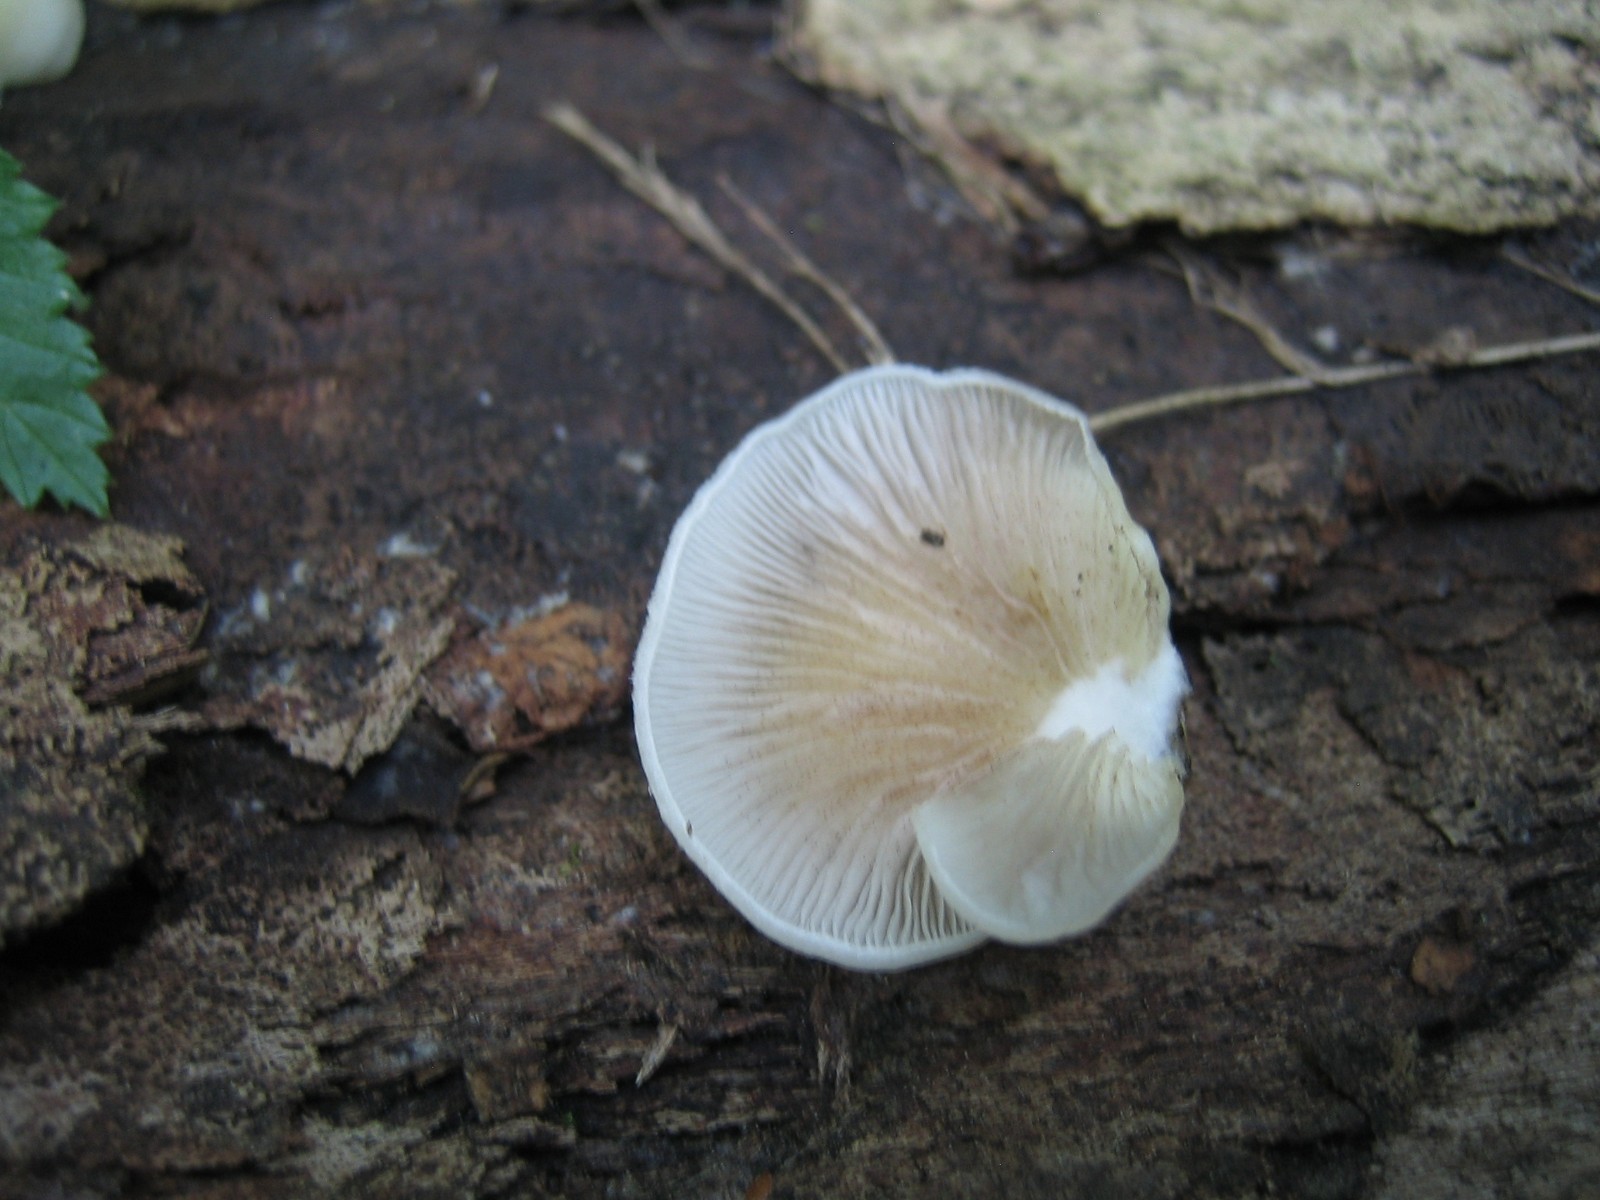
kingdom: Fungi
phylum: Basidiomycota
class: Agaricomycetes
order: Agaricales
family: Crepidotaceae
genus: Crepidotus
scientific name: Crepidotus mollis
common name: blød muslingesvamp
